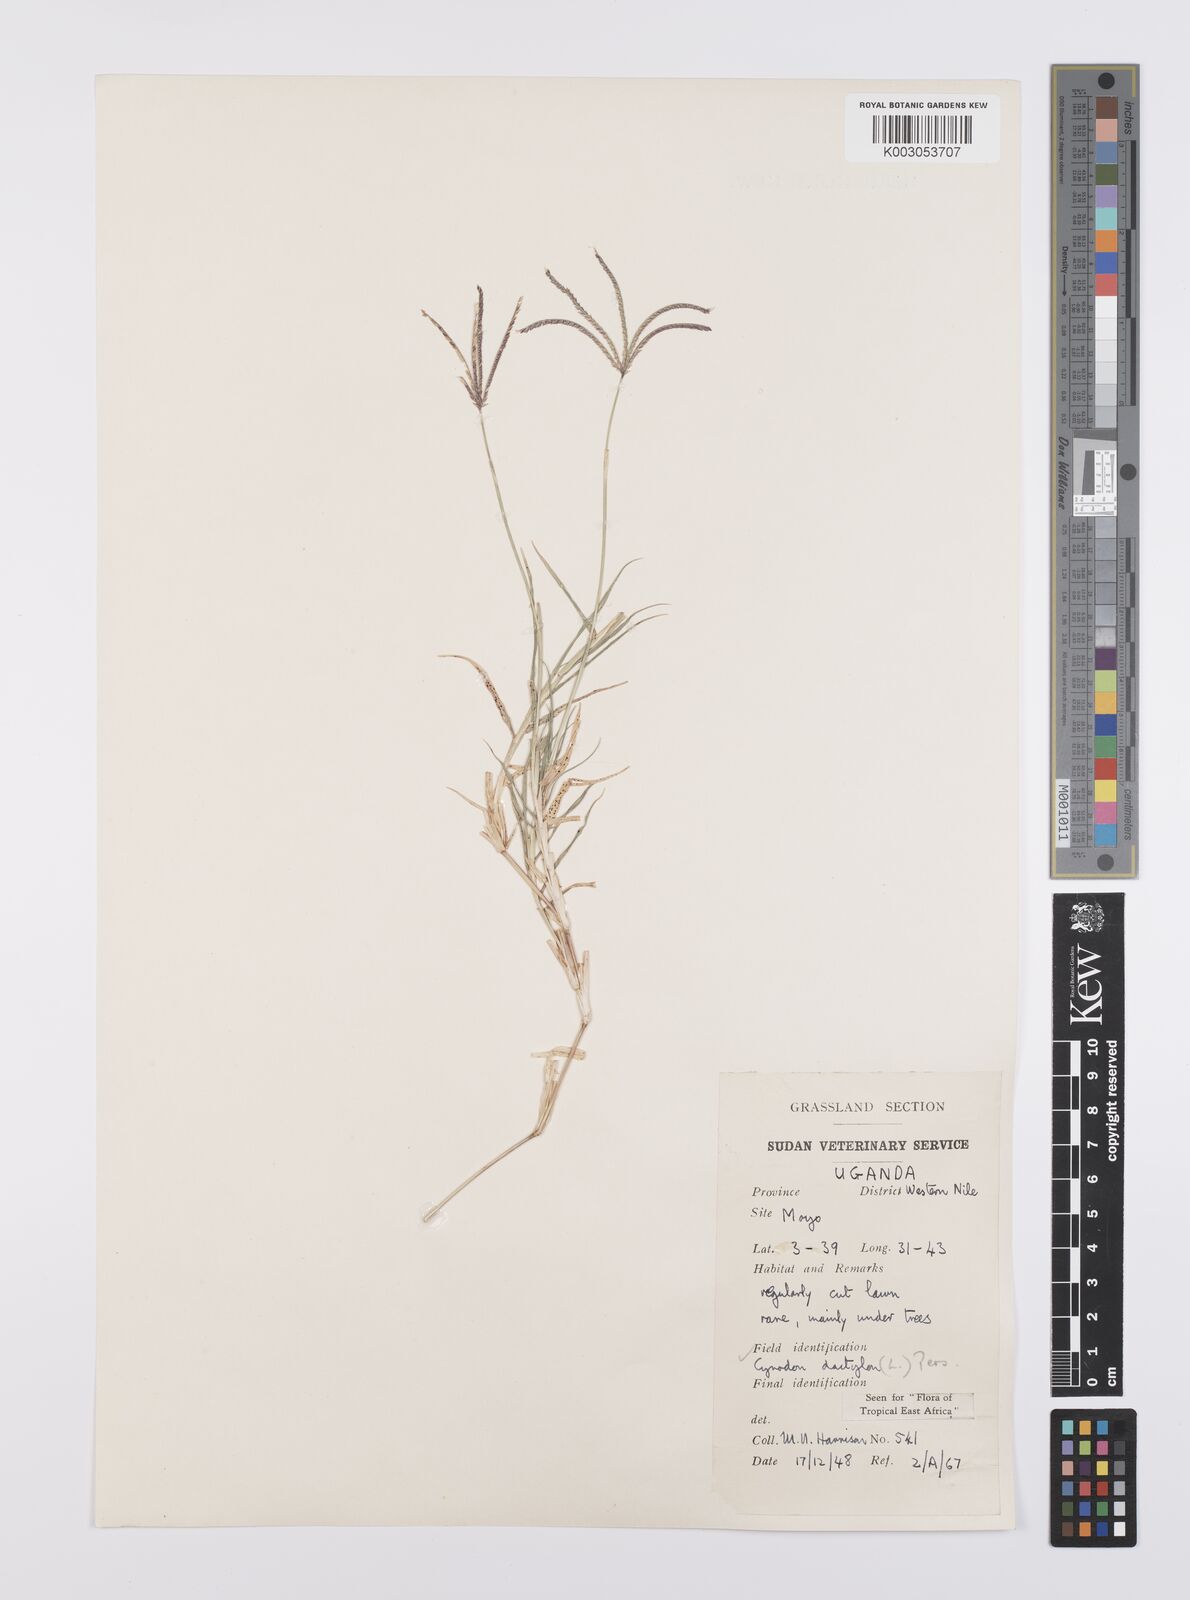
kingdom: Plantae
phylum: Tracheophyta
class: Liliopsida
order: Poales
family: Poaceae
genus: Cynodon
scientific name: Cynodon dactylon
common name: Bermuda grass
